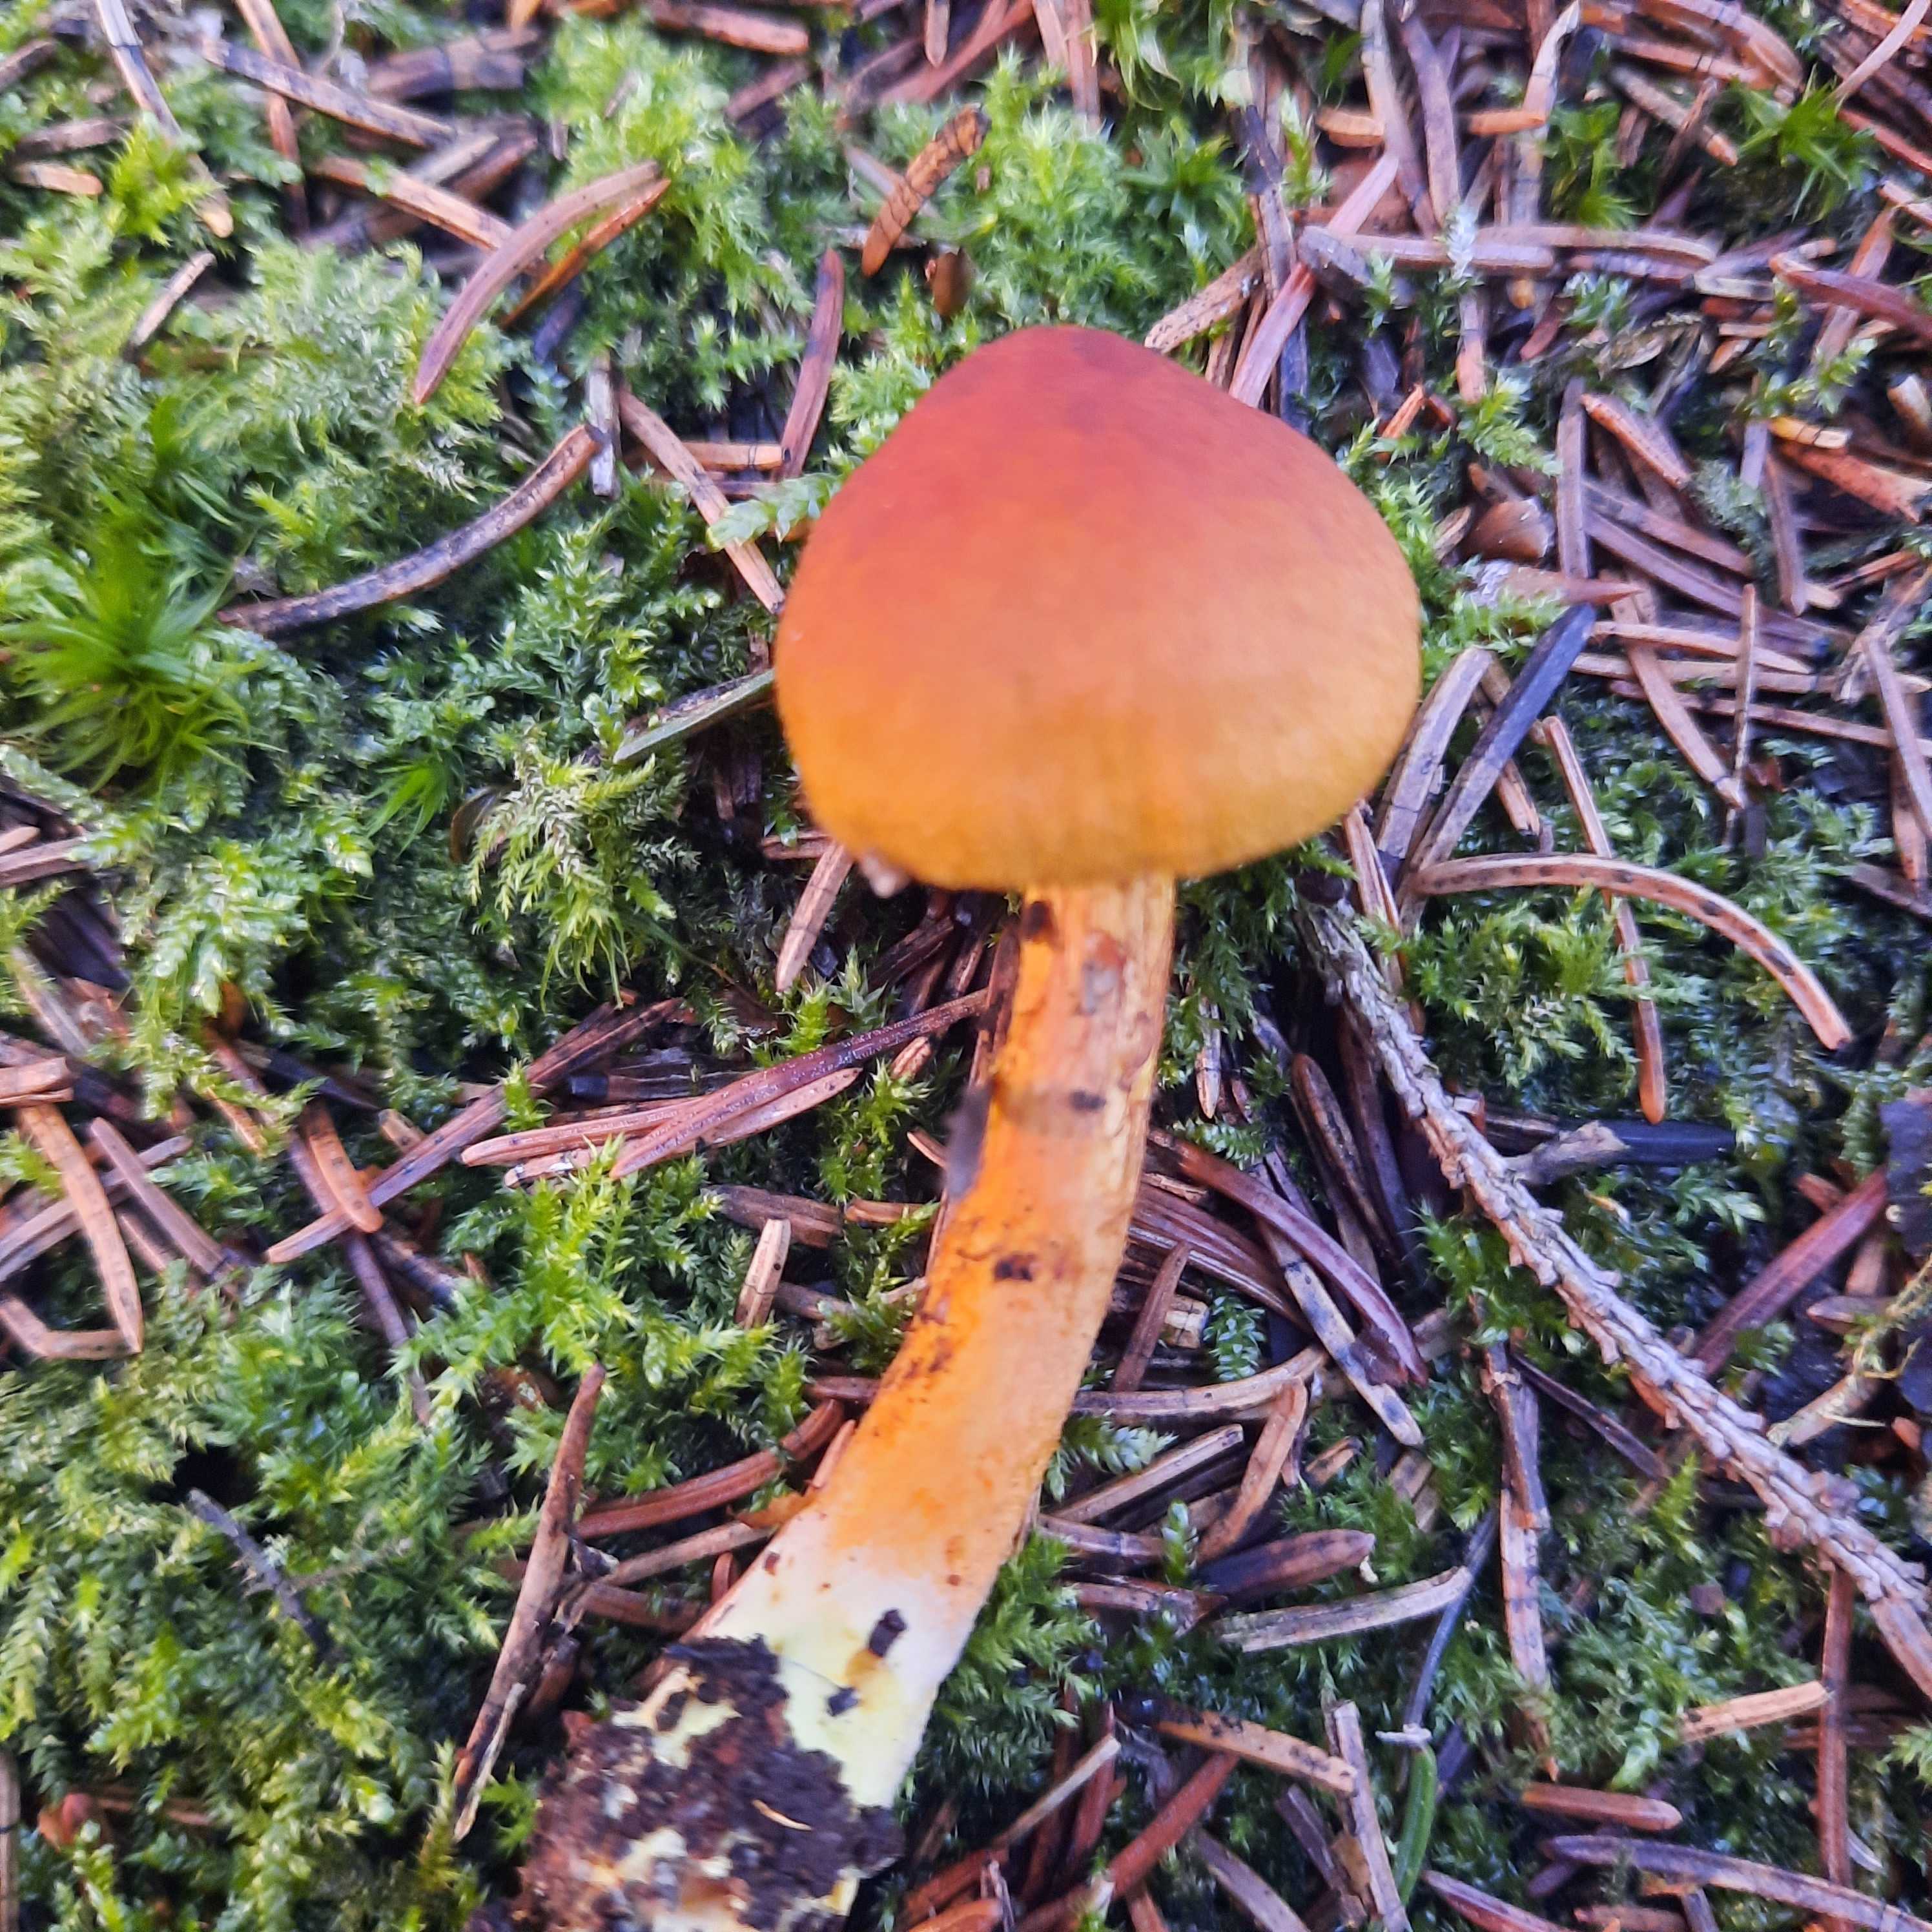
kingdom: Fungi
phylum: Basidiomycota
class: Agaricomycetes
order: Agaricales
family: Cortinariaceae
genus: Cortinarius
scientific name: Cortinarius
